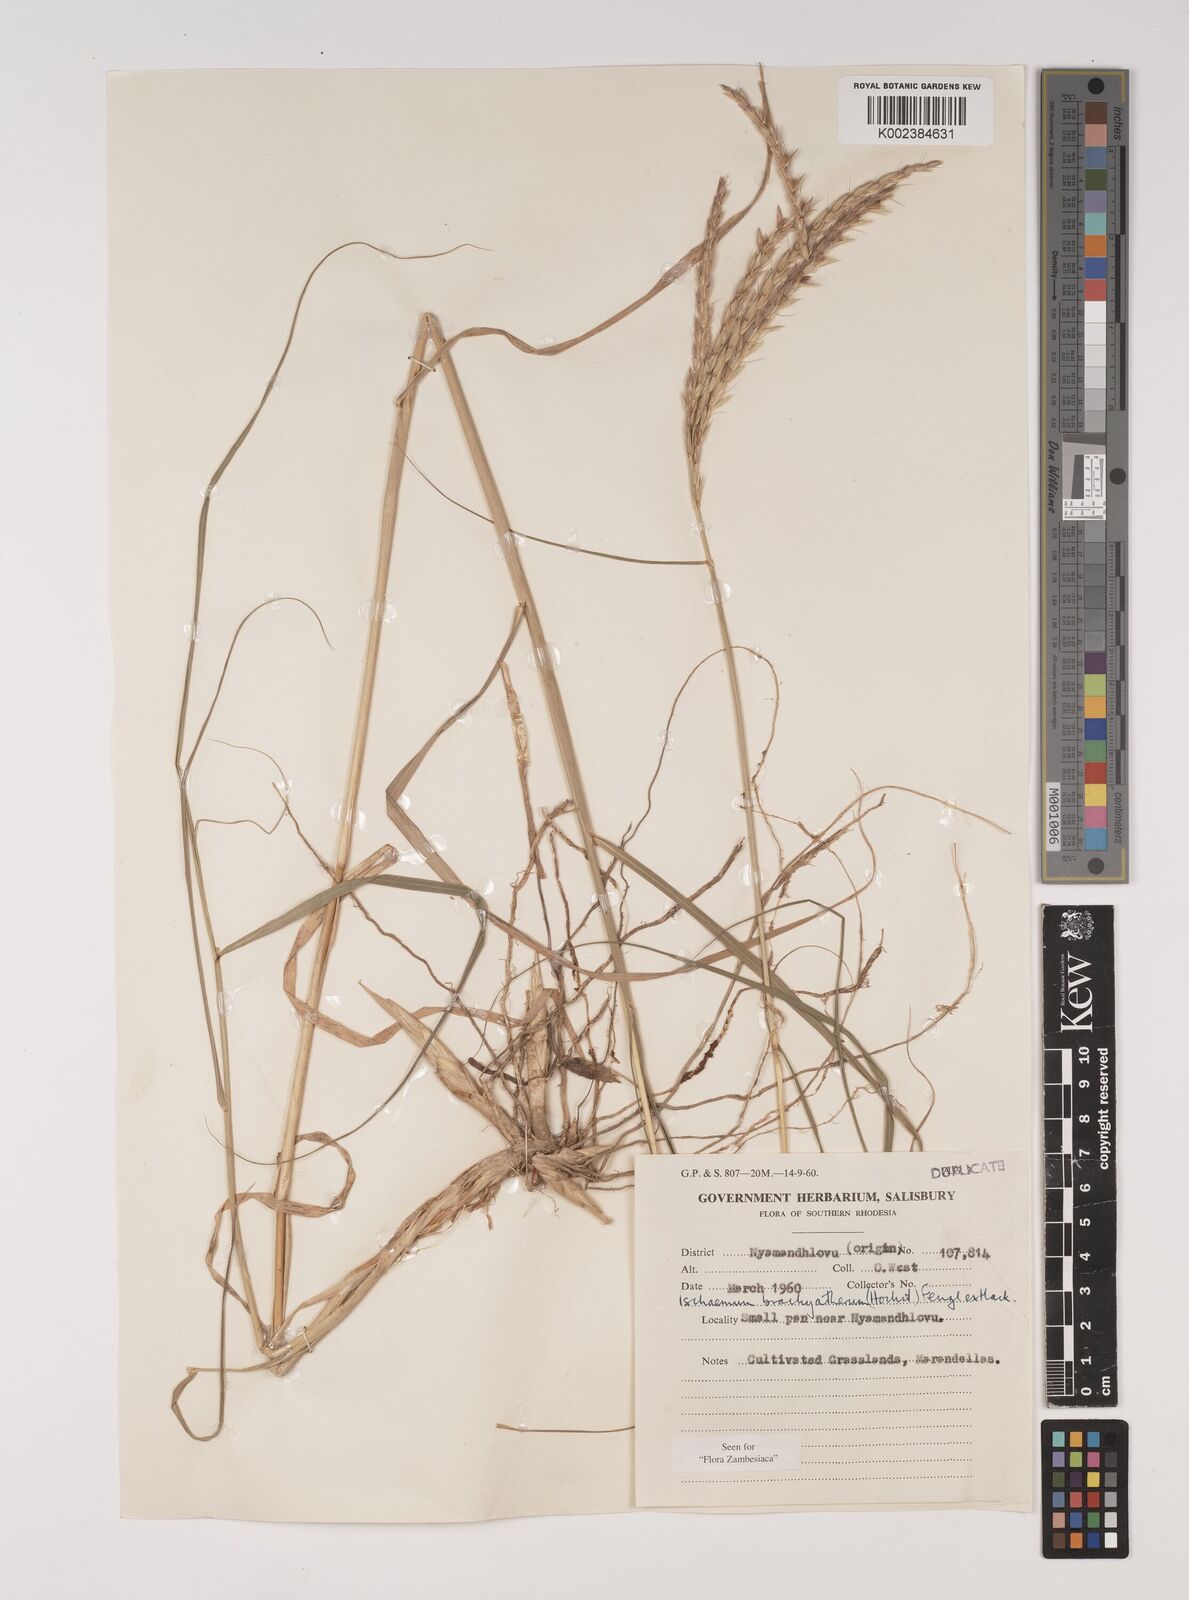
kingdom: Plantae
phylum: Tracheophyta
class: Liliopsida
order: Poales
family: Poaceae
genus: Ischaemum
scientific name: Ischaemum afrum
